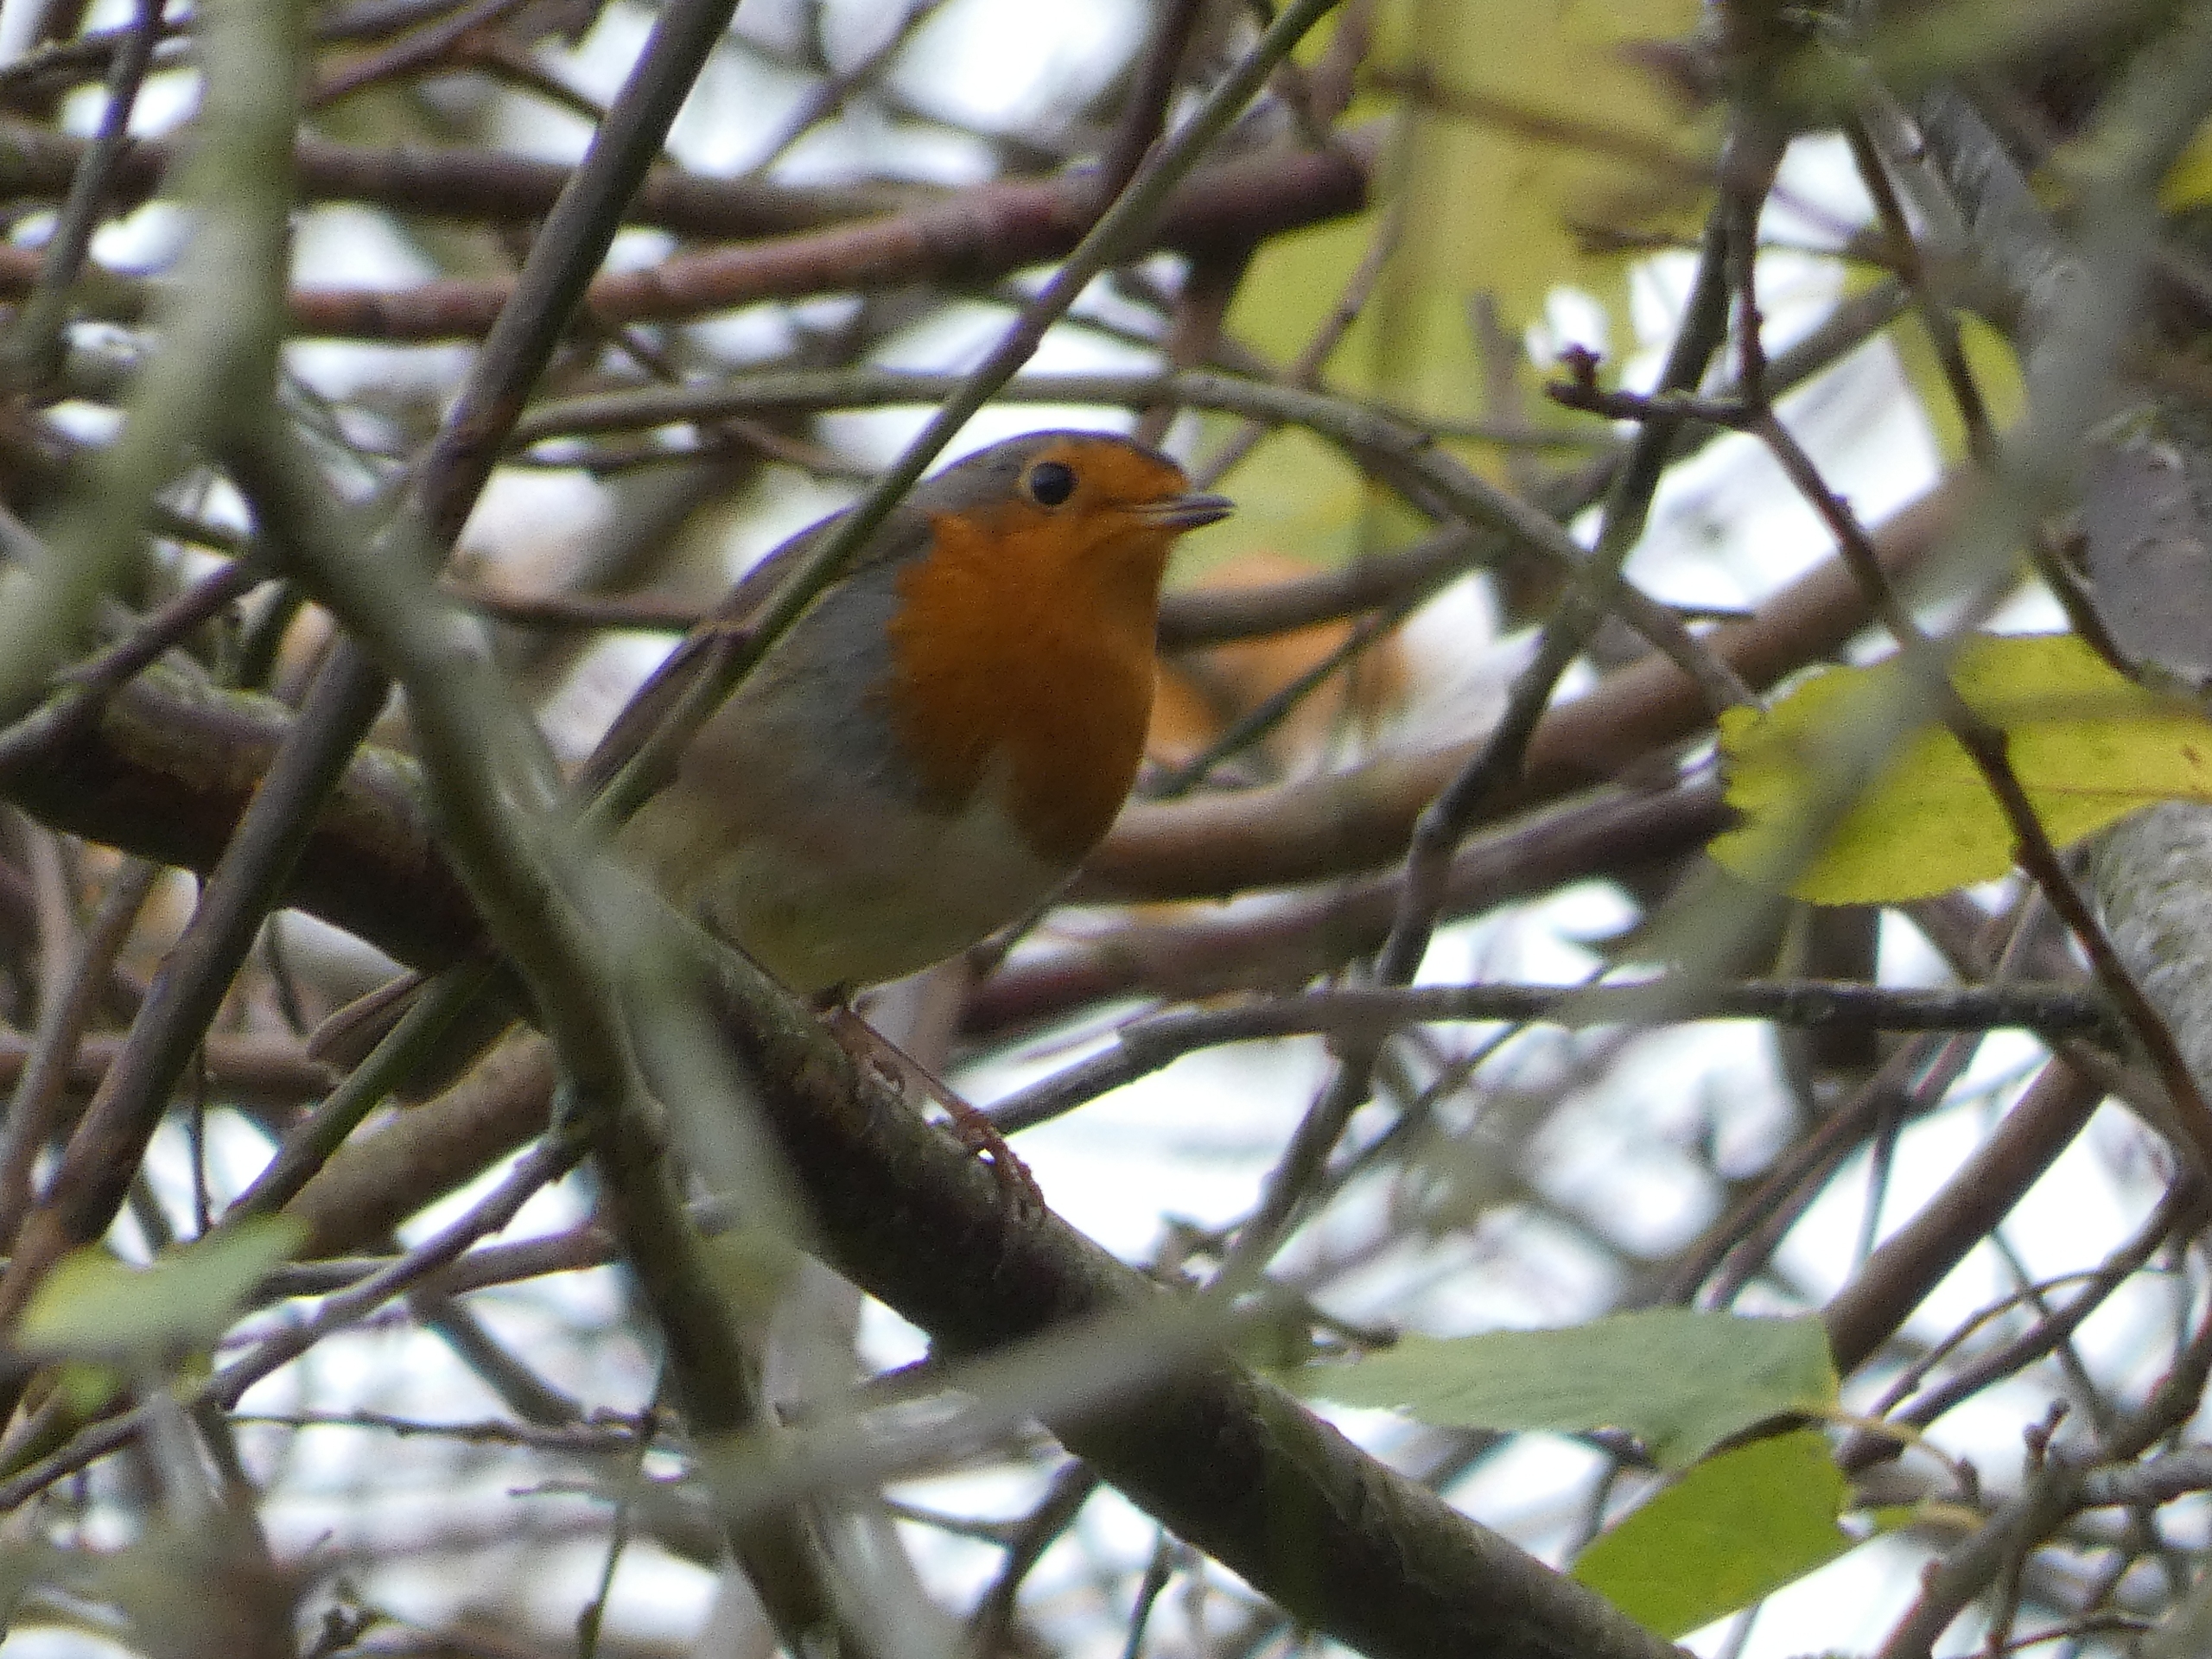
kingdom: Animalia
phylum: Chordata
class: Aves
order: Passeriformes
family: Muscicapidae
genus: Erithacus
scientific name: Erithacus rubecula
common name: Rødhals/rødkælk
